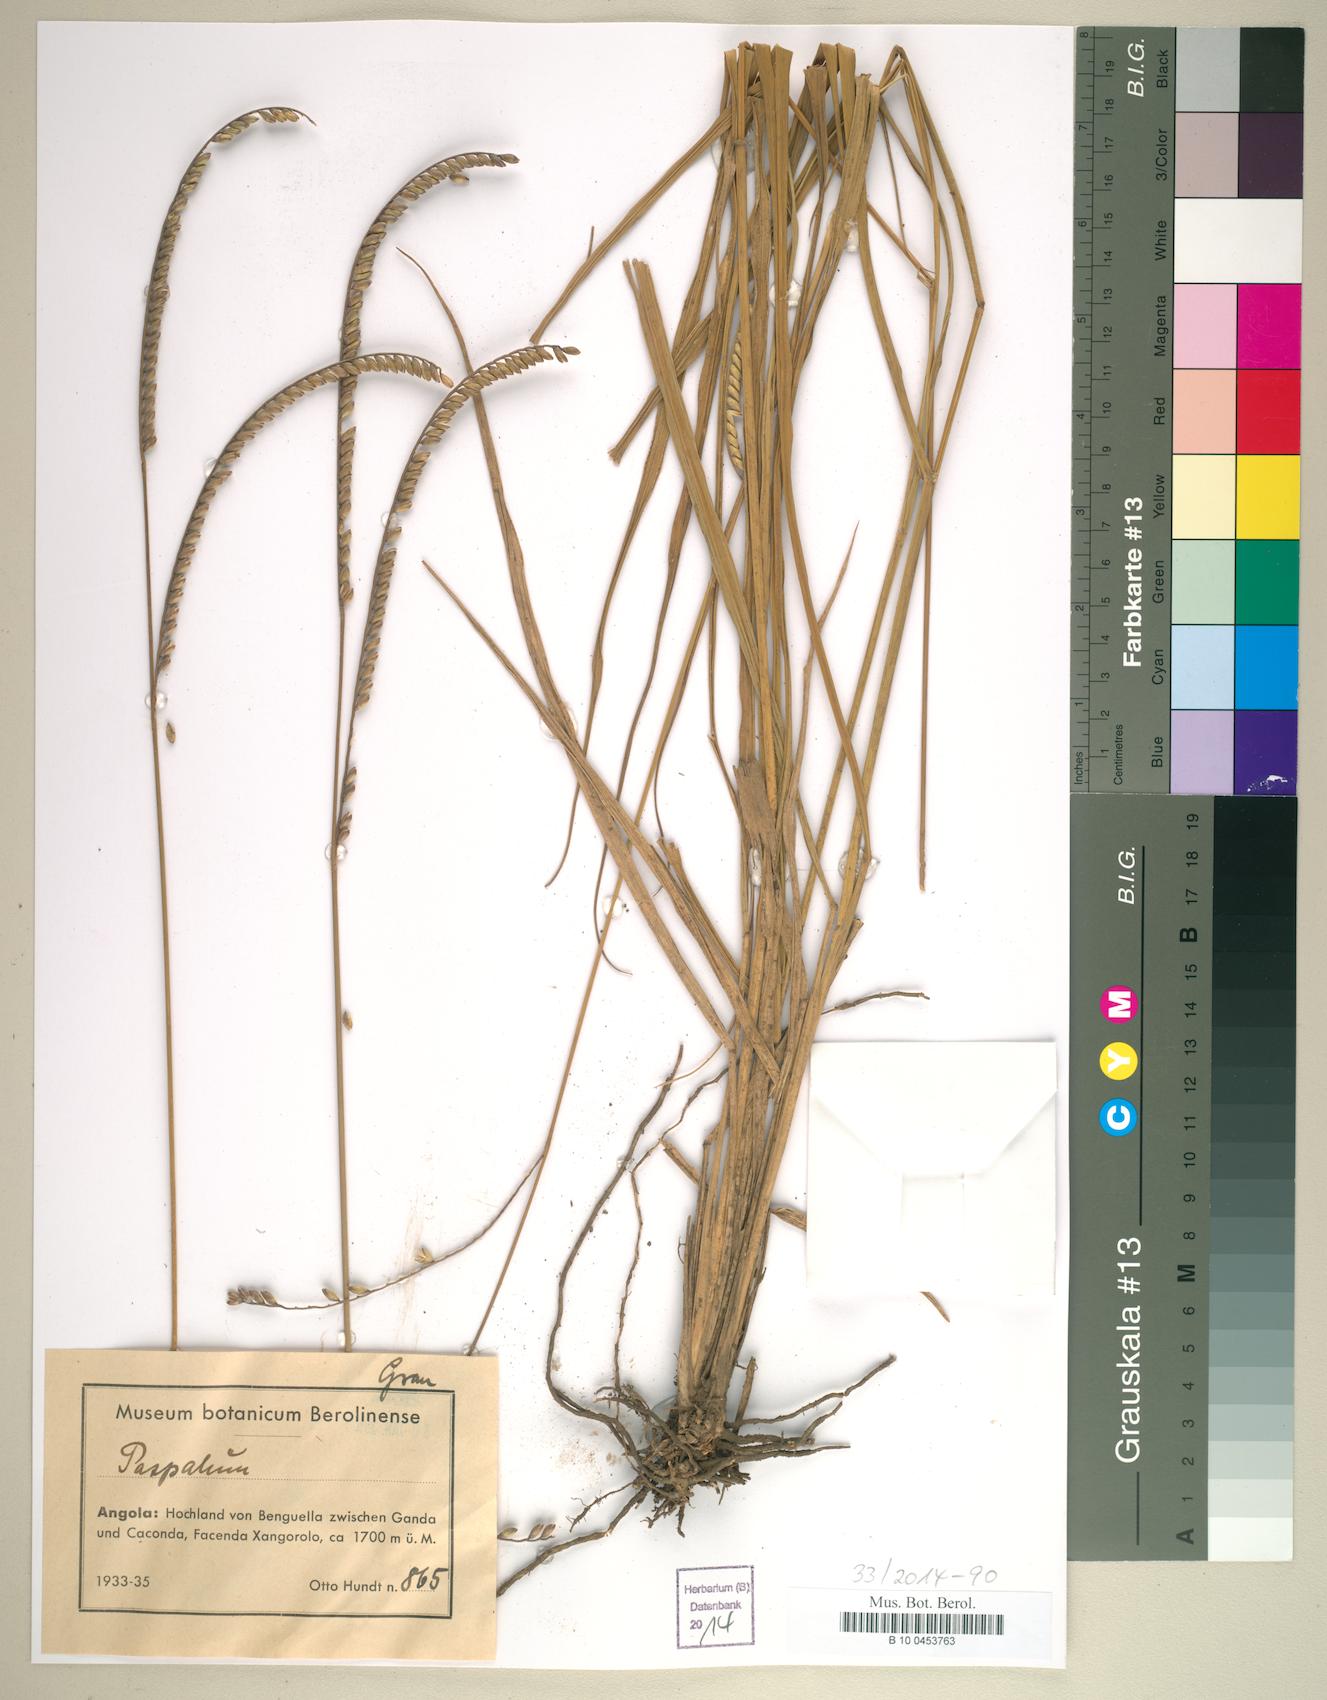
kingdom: Plantae
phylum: Tracheophyta
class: Liliopsida
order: Poales
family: Poaceae
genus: Paspalum
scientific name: Paspalum
